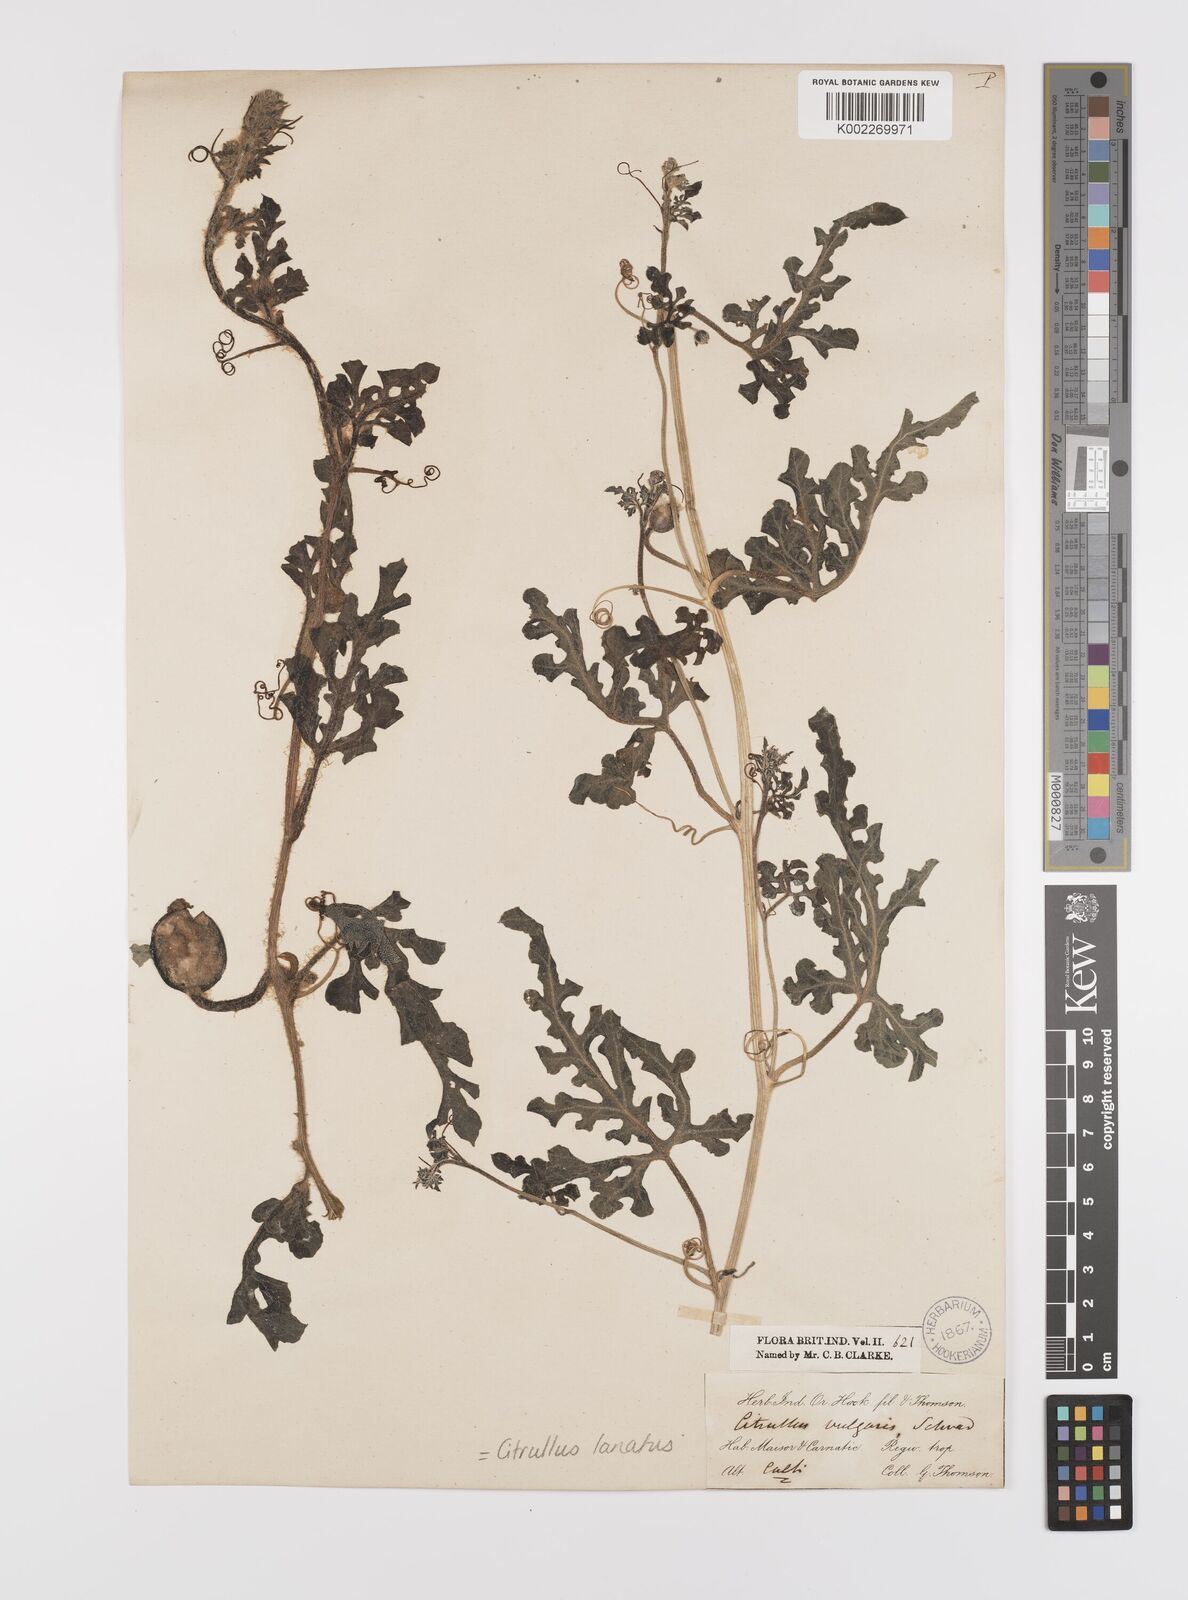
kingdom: Plantae
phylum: Tracheophyta
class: Magnoliopsida
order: Cucurbitales
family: Cucurbitaceae
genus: Citrullus
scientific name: Citrullus lanatus
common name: Watermelon
